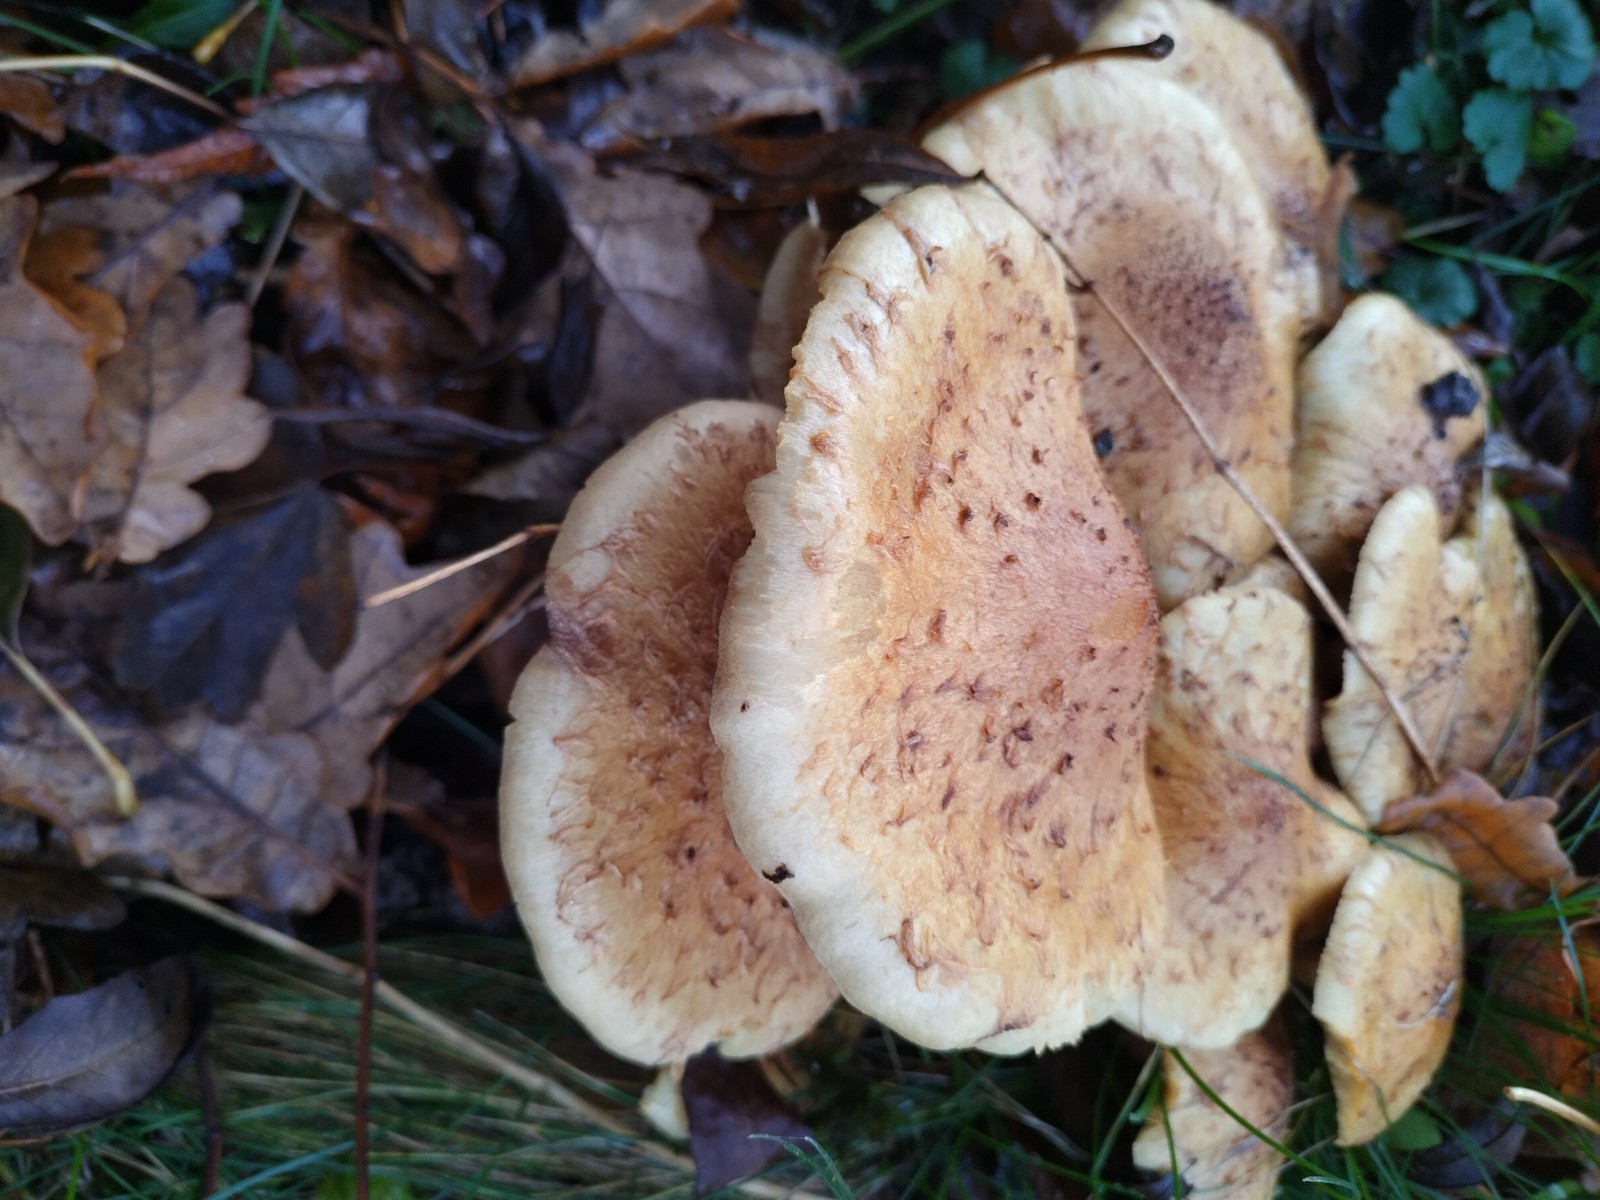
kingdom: Fungi
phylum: Basidiomycota
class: Agaricomycetes
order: Agaricales
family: Strophariaceae
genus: Pholiota
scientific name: Pholiota squarrosa
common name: krumskællet skælhat
